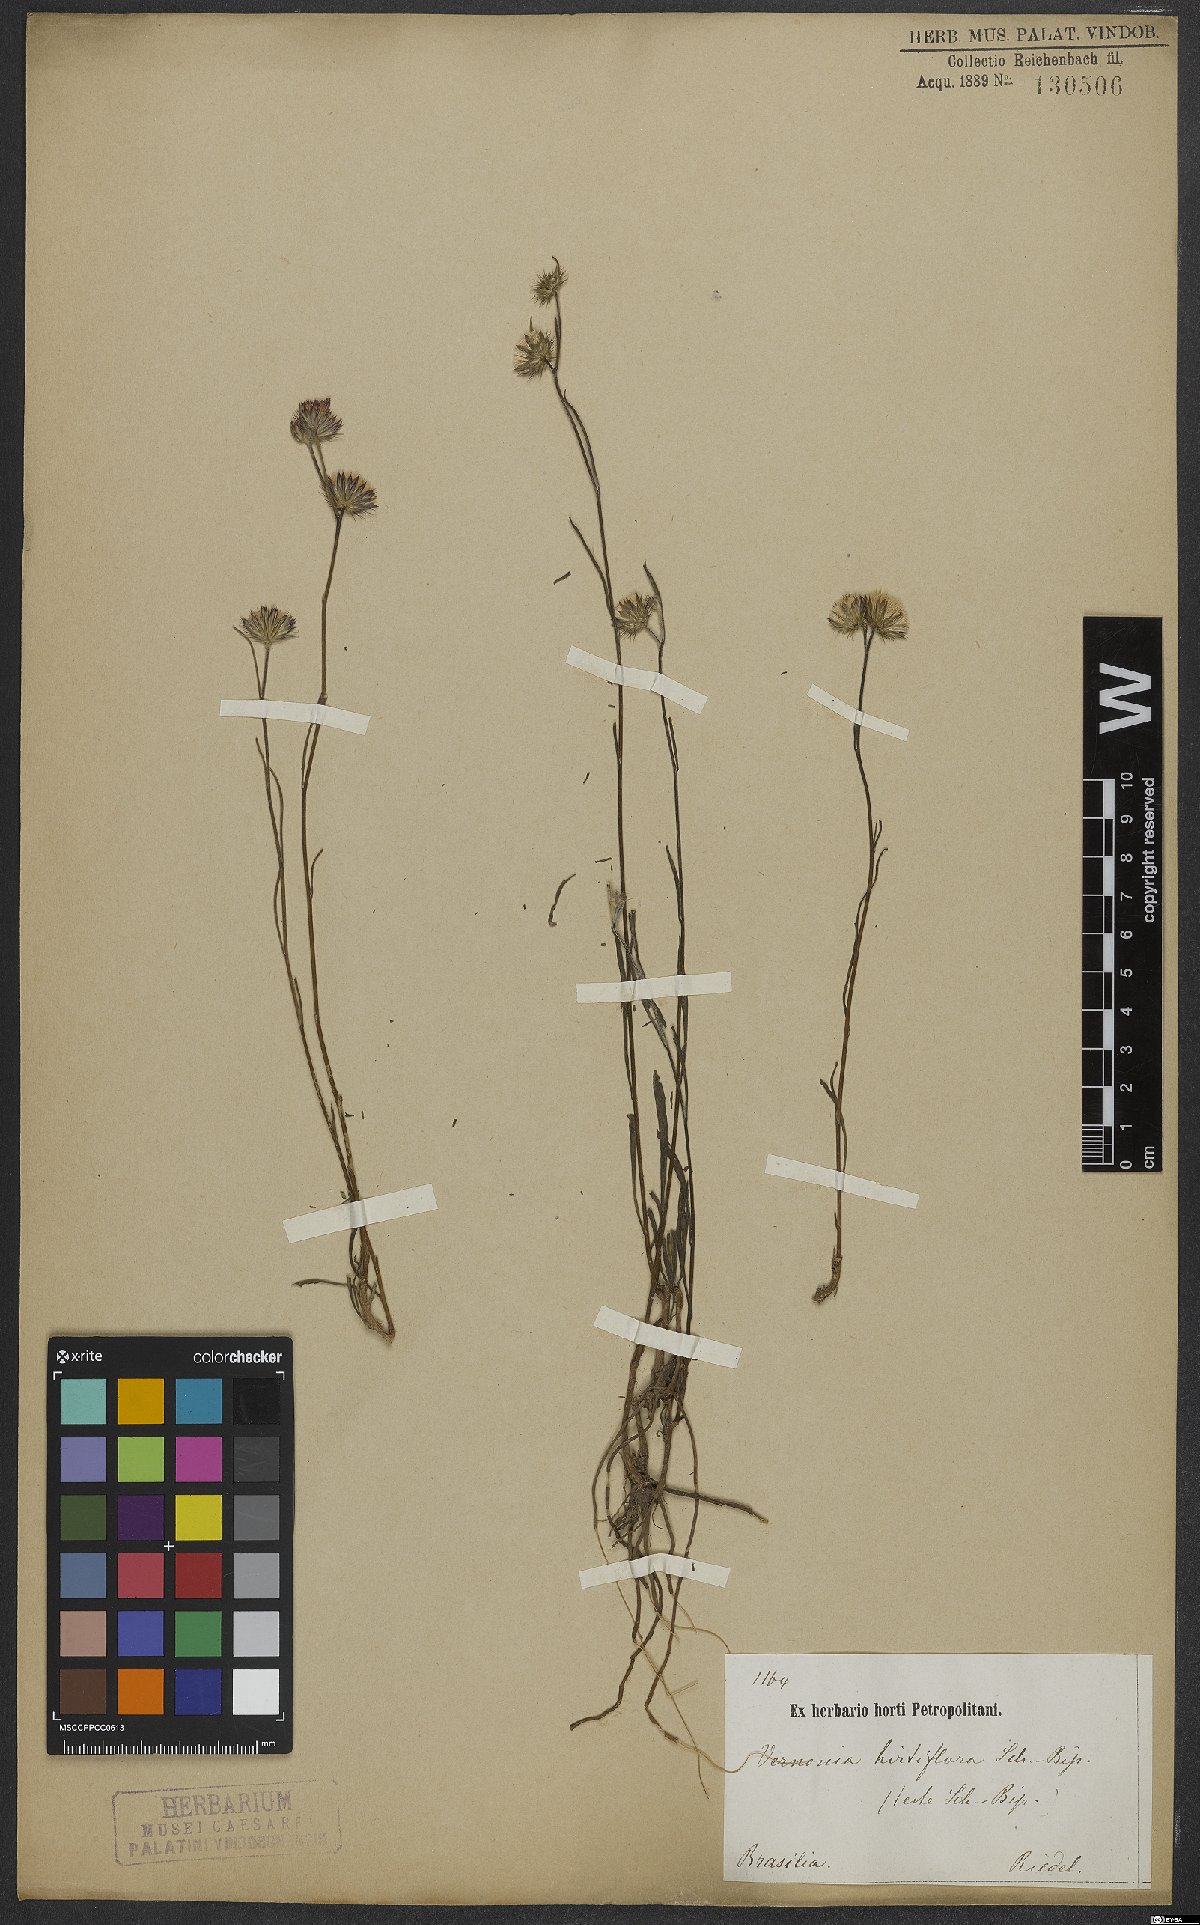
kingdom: Plantae
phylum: Tracheophyta
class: Magnoliopsida
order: Asterales
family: Asteraceae
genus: Lepidaploa
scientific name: Lepidaploa remotiflora
